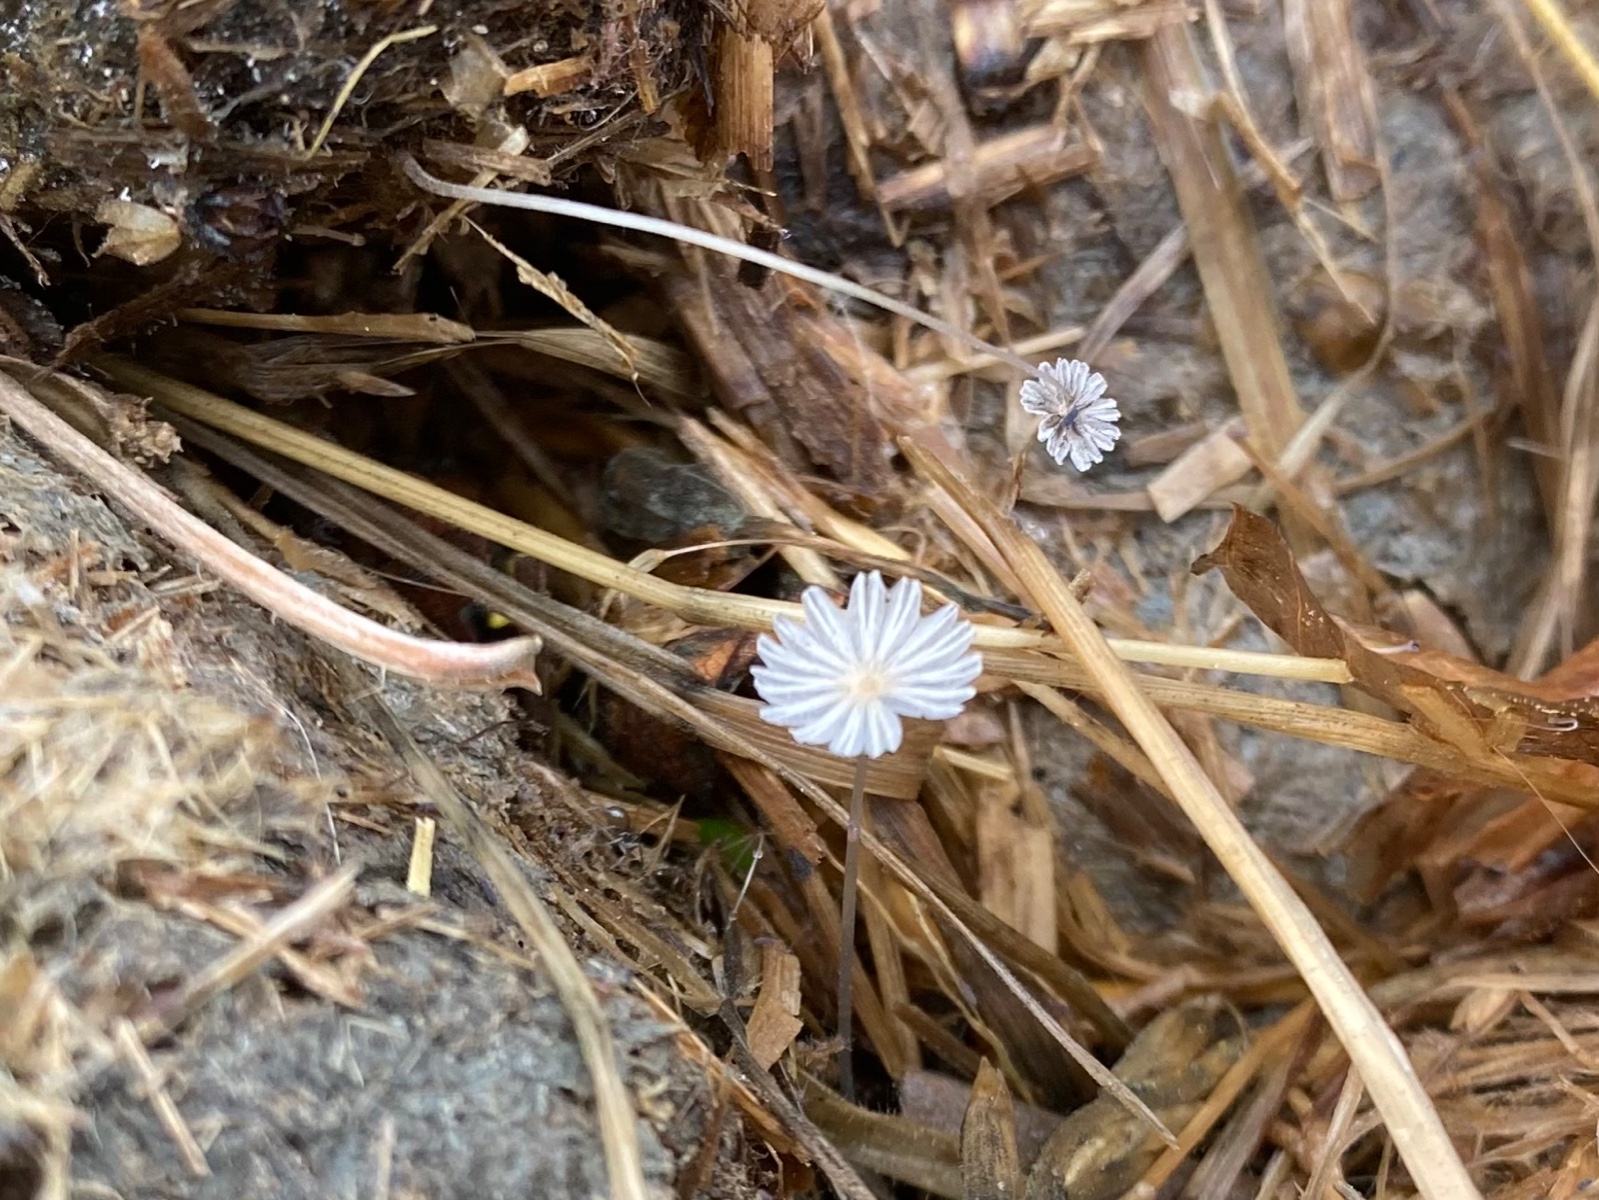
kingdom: Fungi
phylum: Basidiomycota
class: Agaricomycetes
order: Agaricales
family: Psathyrellaceae
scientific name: Psathyrellaceae
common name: mørkhatfamilien
